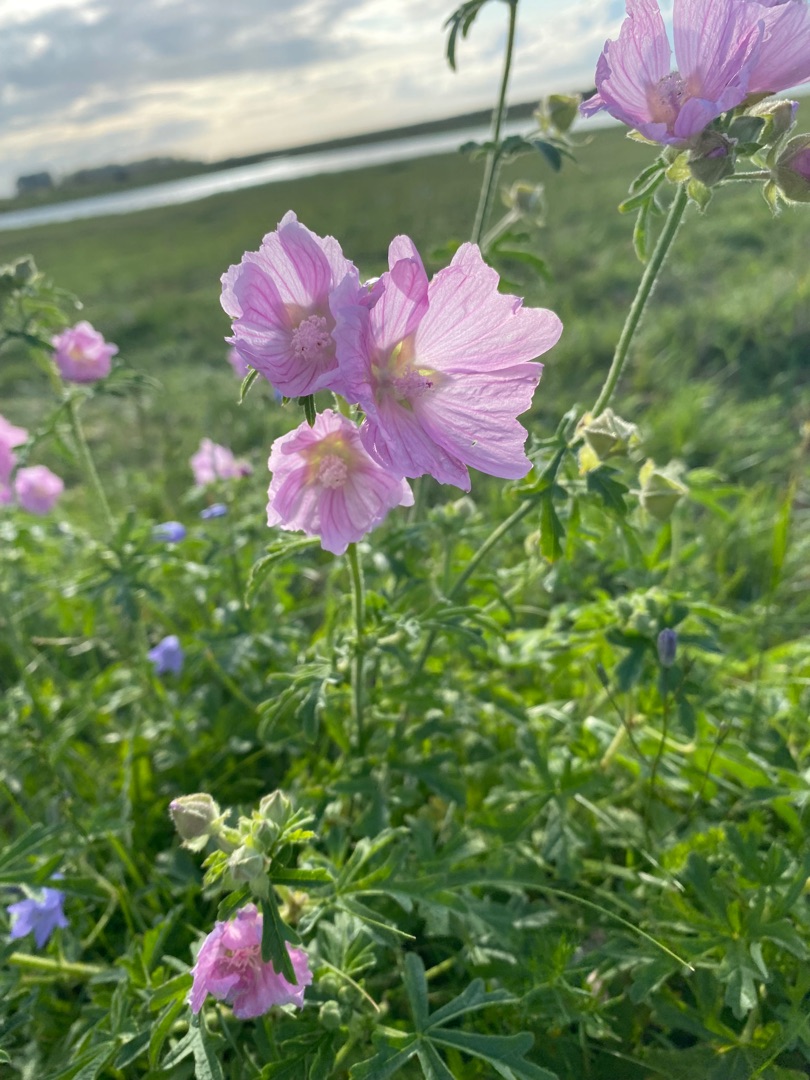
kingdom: Plantae
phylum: Tracheophyta
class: Magnoliopsida
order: Malvales
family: Malvaceae
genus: Malva
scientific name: Malva alcea
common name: Rosen-katost
